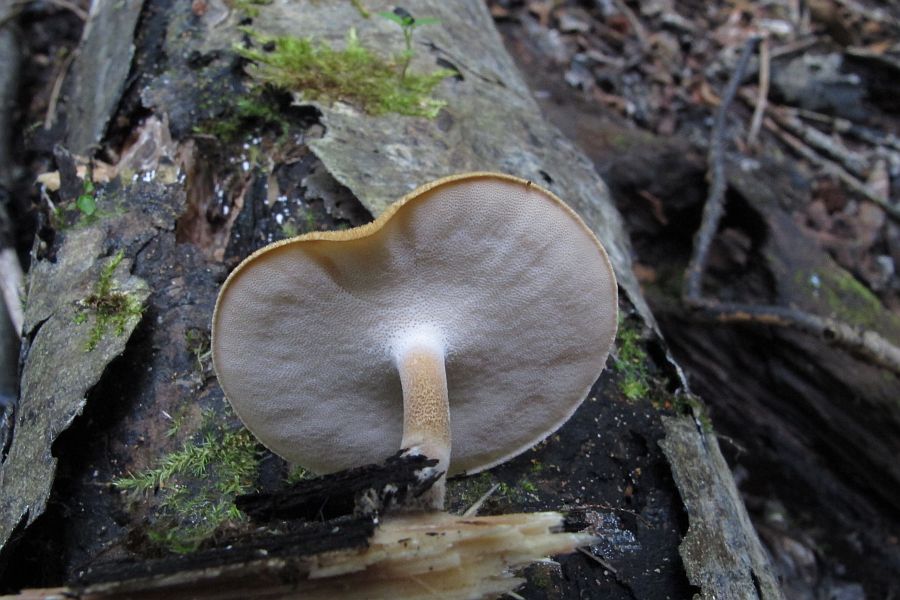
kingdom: Fungi
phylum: Basidiomycota
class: Agaricomycetes
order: Polyporales
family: Polyporaceae
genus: Lentinus
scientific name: Lentinus substrictus
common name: forårs-stilkporesvamp
